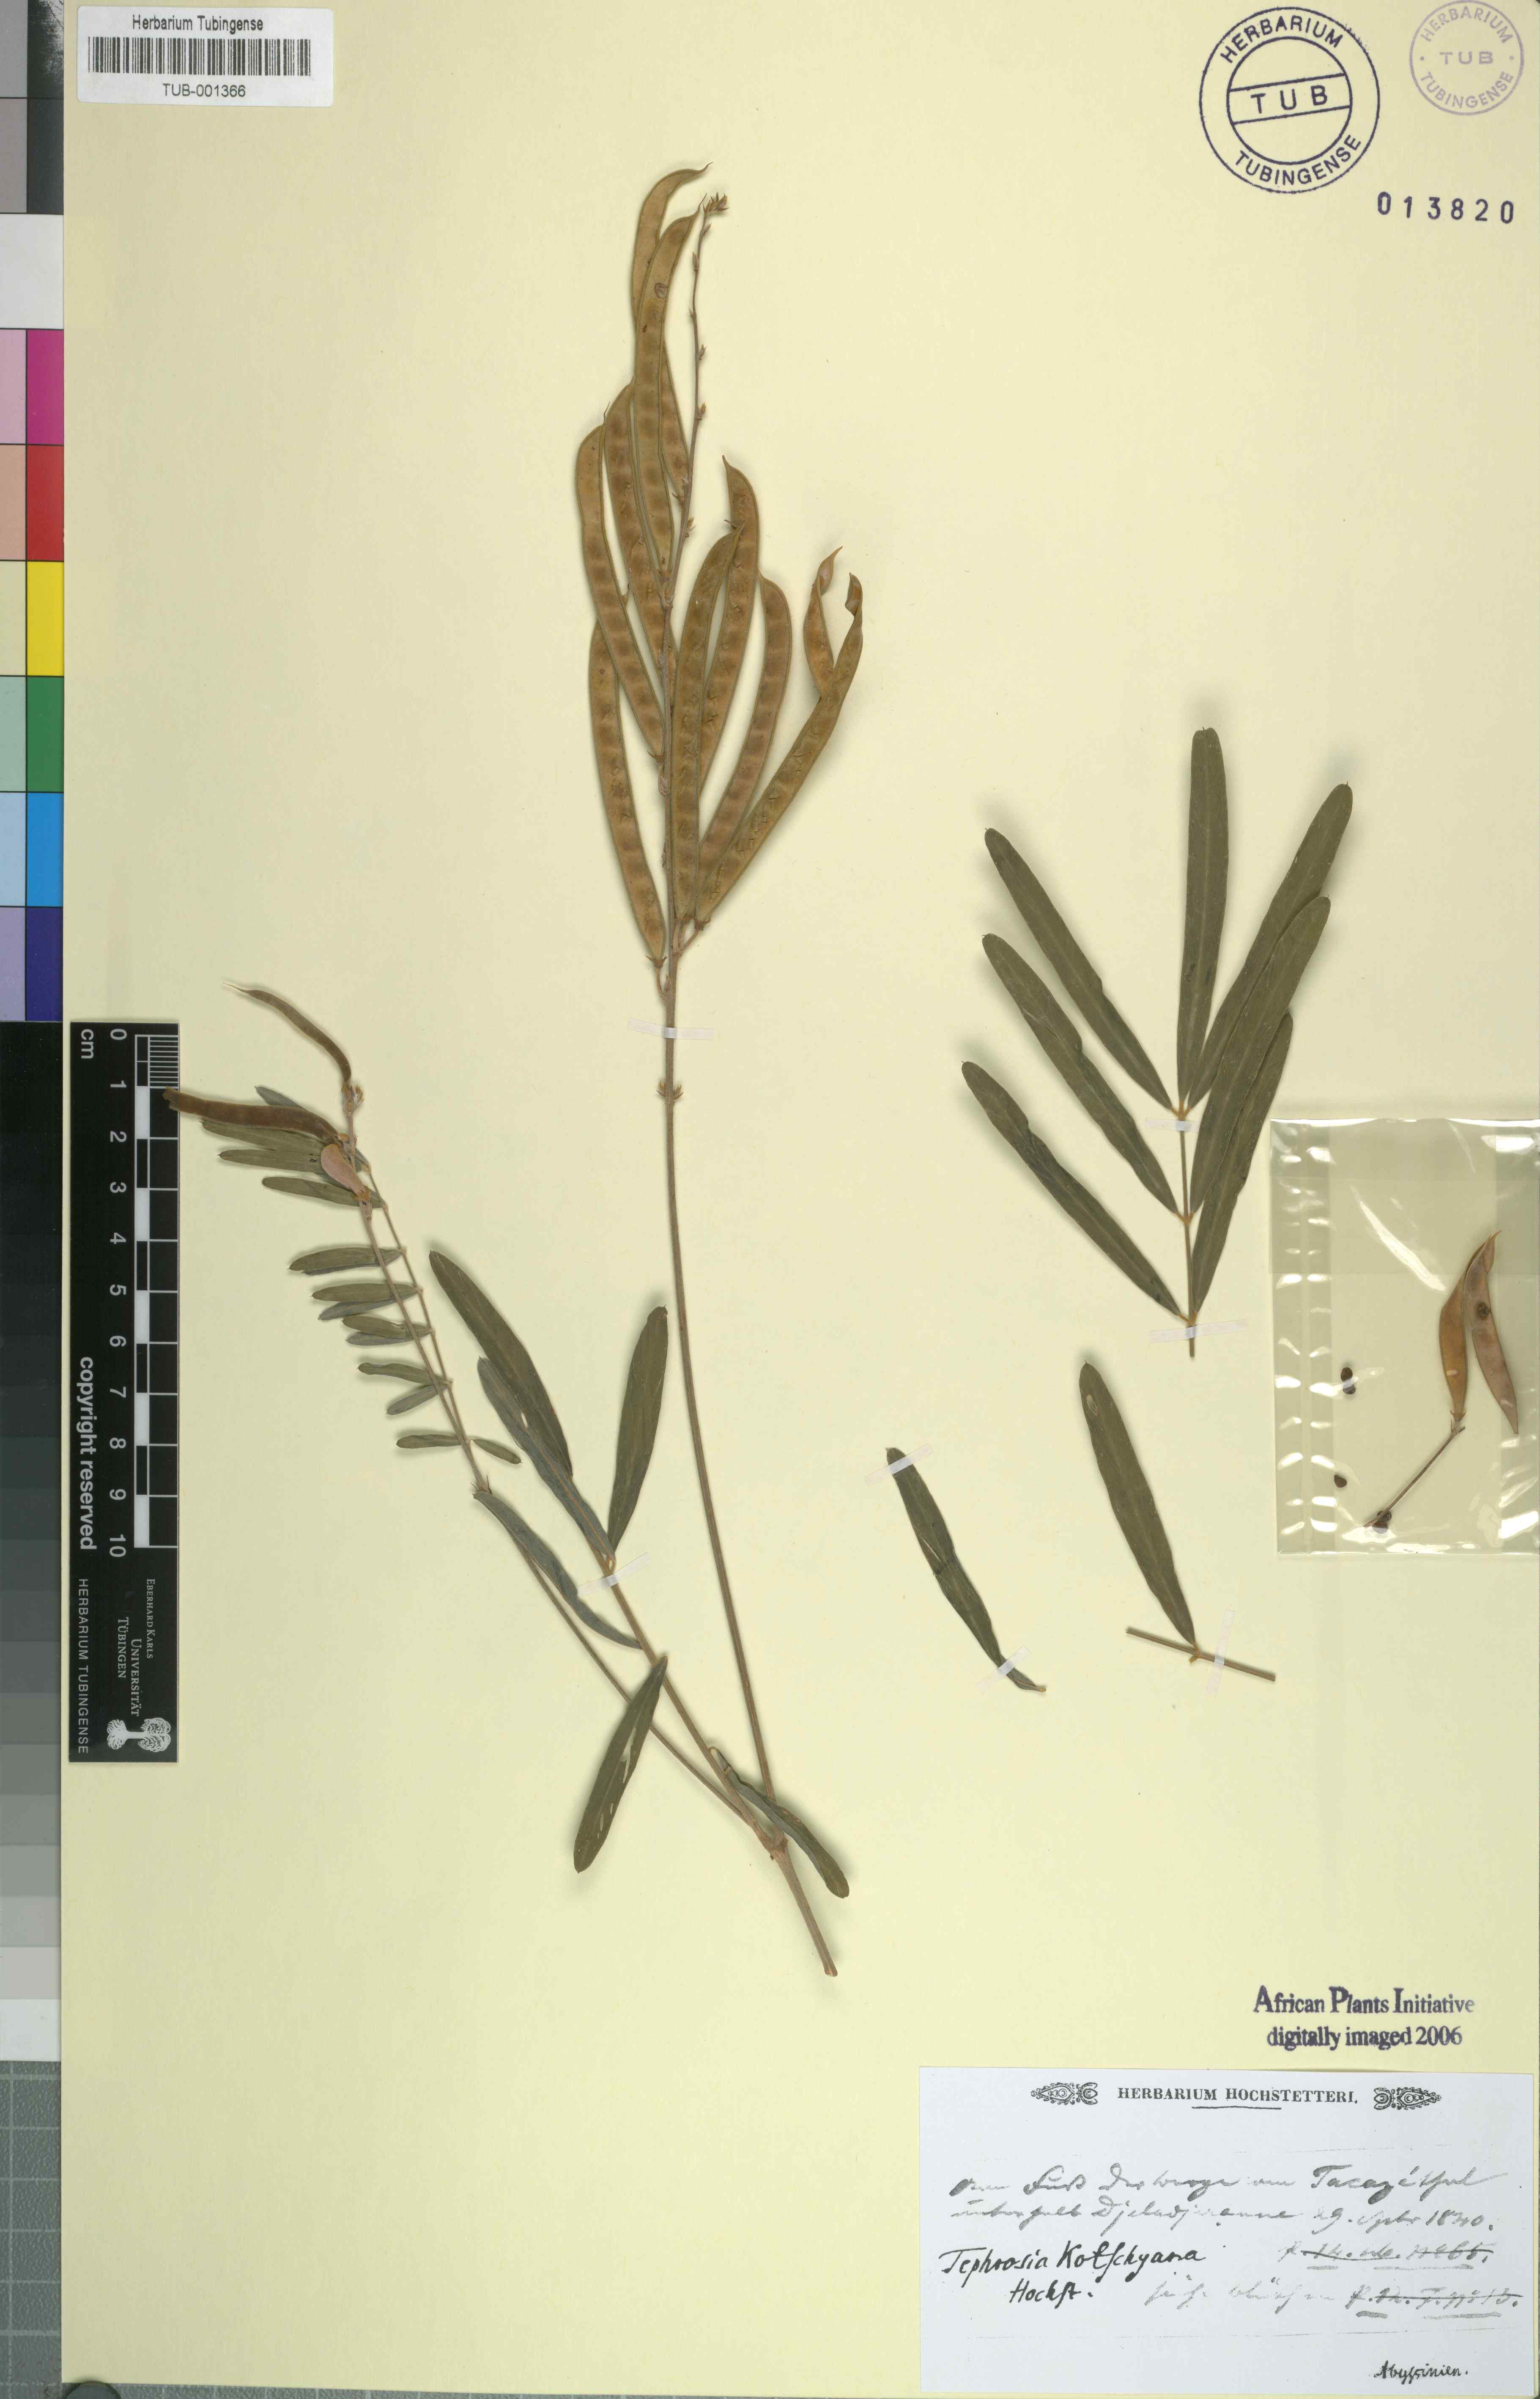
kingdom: Plantae
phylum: Tracheophyta
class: Magnoliopsida
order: Fabales
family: Fabaceae
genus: Tephrosia
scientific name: Tephrosia bracteolata
